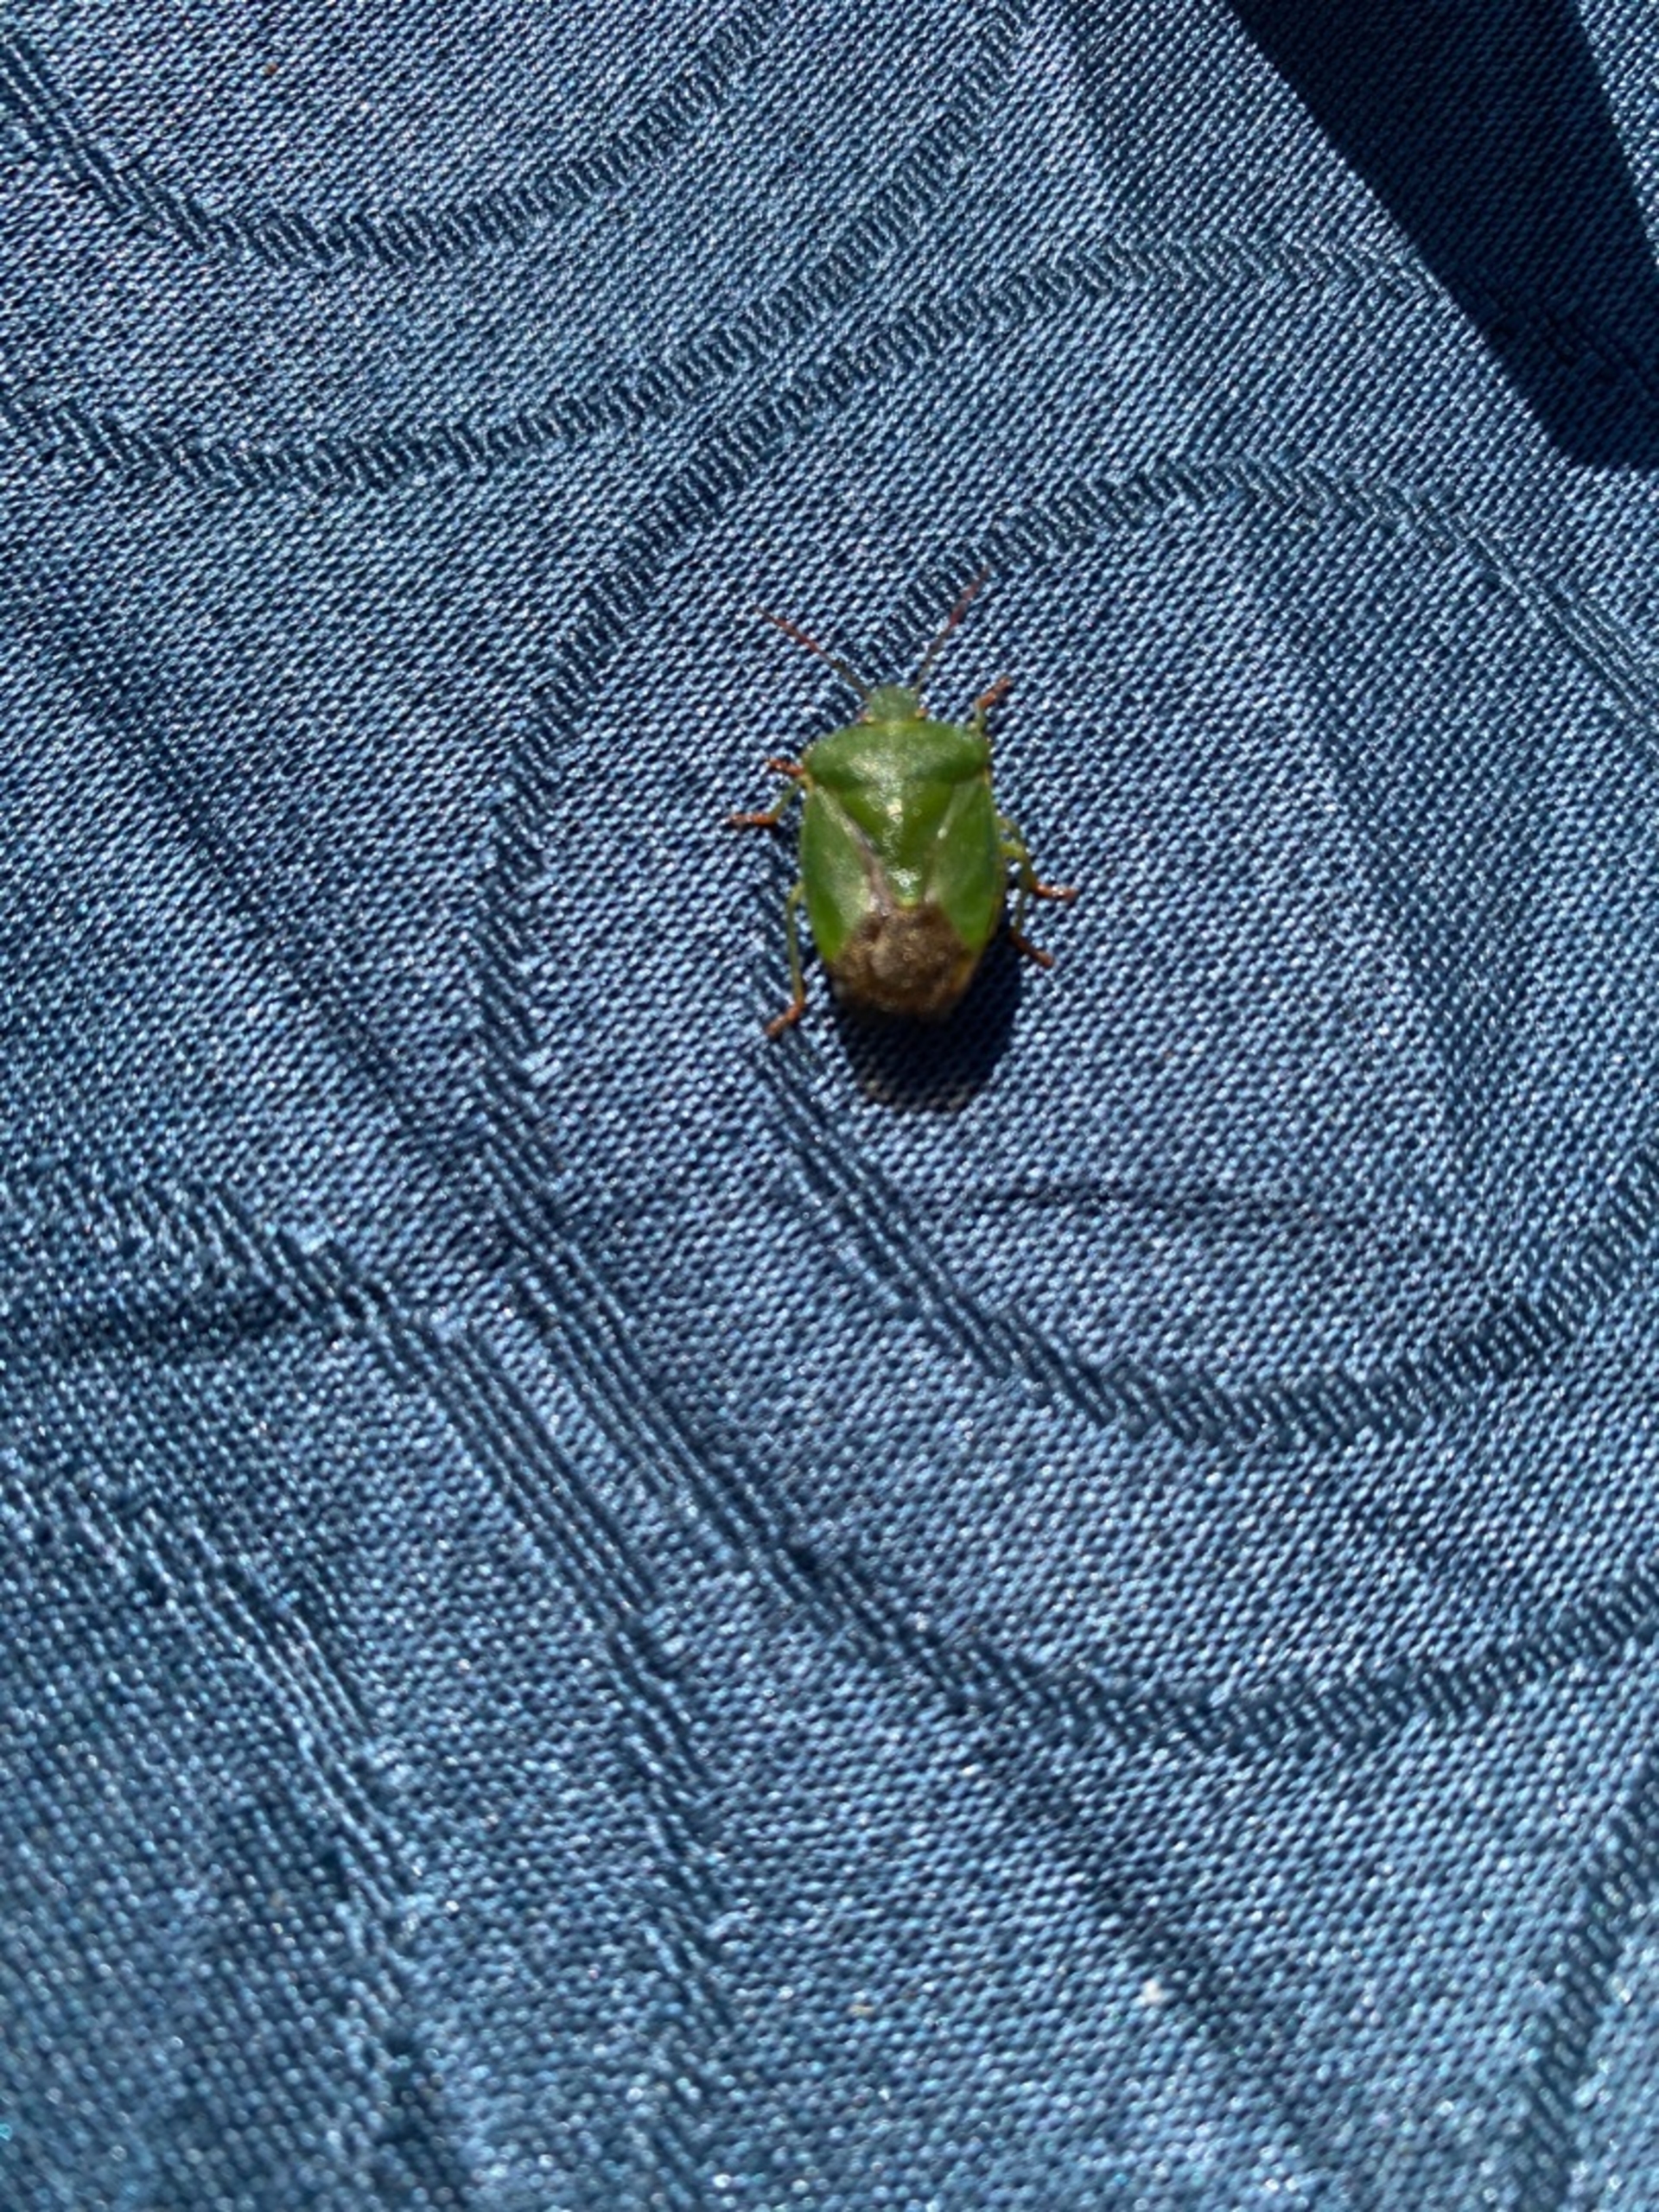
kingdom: Animalia
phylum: Arthropoda
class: Insecta
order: Hemiptera
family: Pentatomidae
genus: Palomena
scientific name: Palomena prasina
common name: Grøn bredtæge
